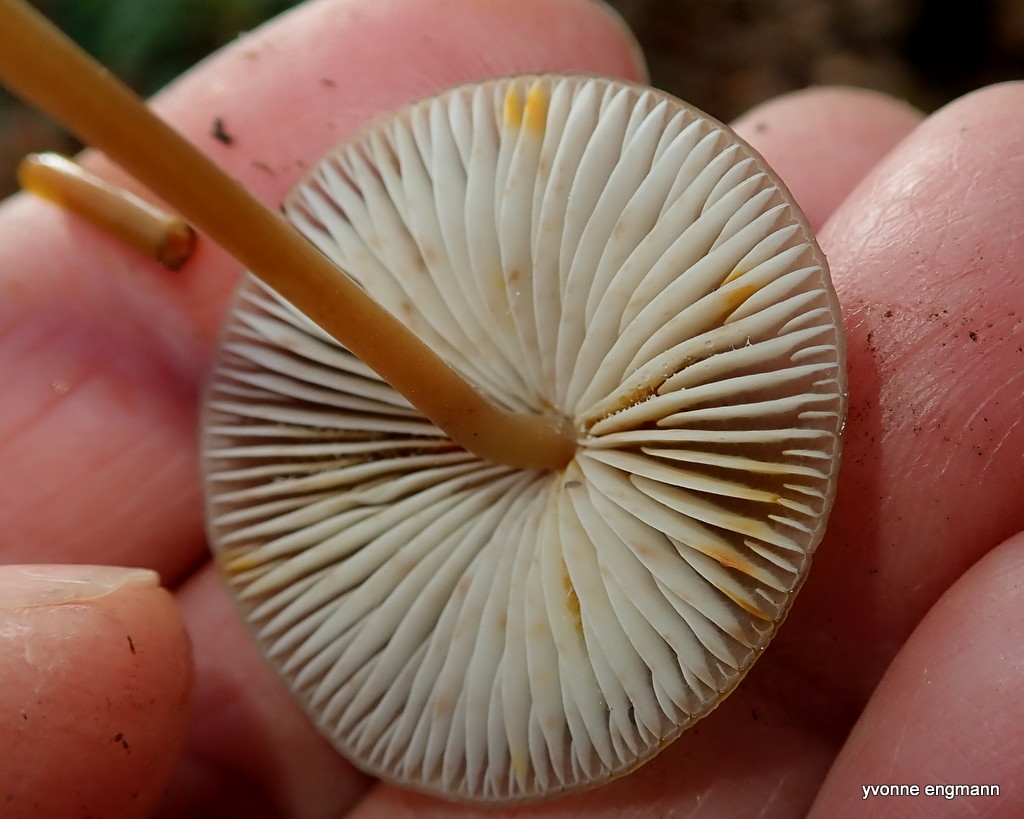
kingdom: Fungi
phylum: Basidiomycota
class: Agaricomycetes
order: Agaricales
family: Mycenaceae
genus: Mycena
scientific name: Mycena crocata
